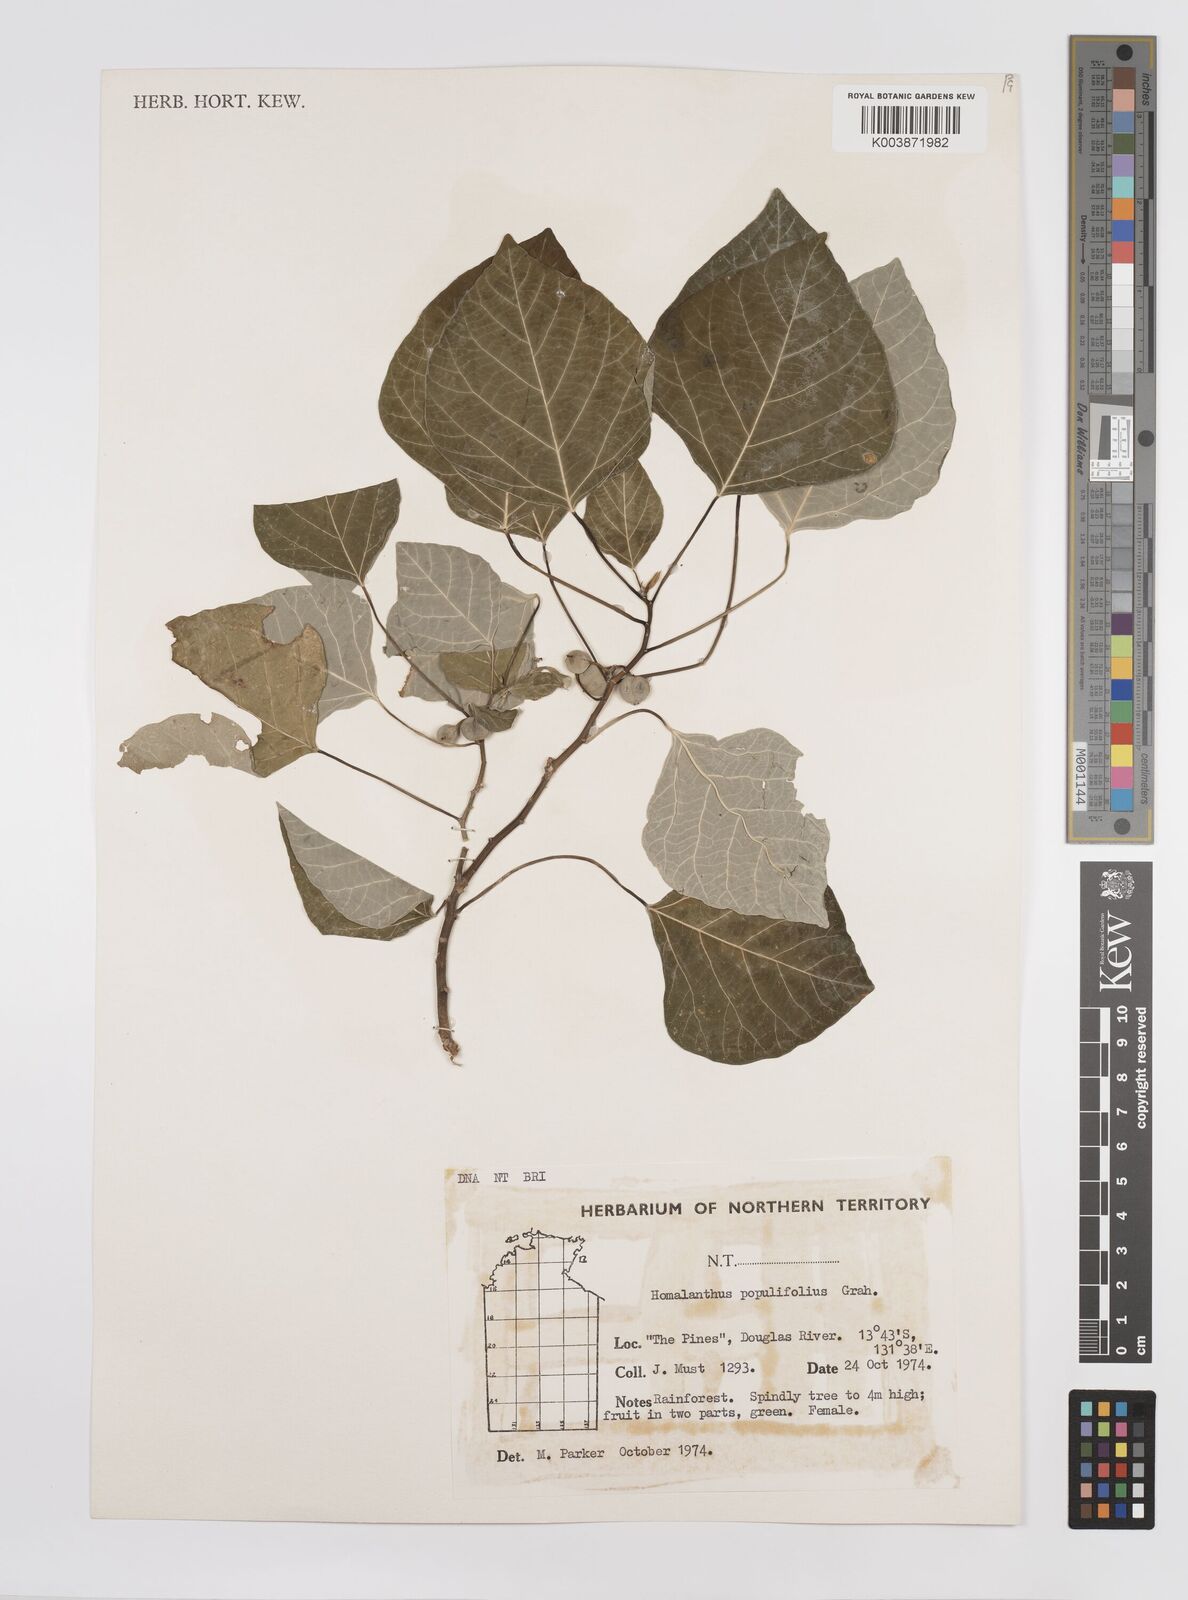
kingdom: Plantae
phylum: Tracheophyta
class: Magnoliopsida
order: Malpighiales
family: Euphorbiaceae
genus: Homalanthus
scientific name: Homalanthus novoguineensis
